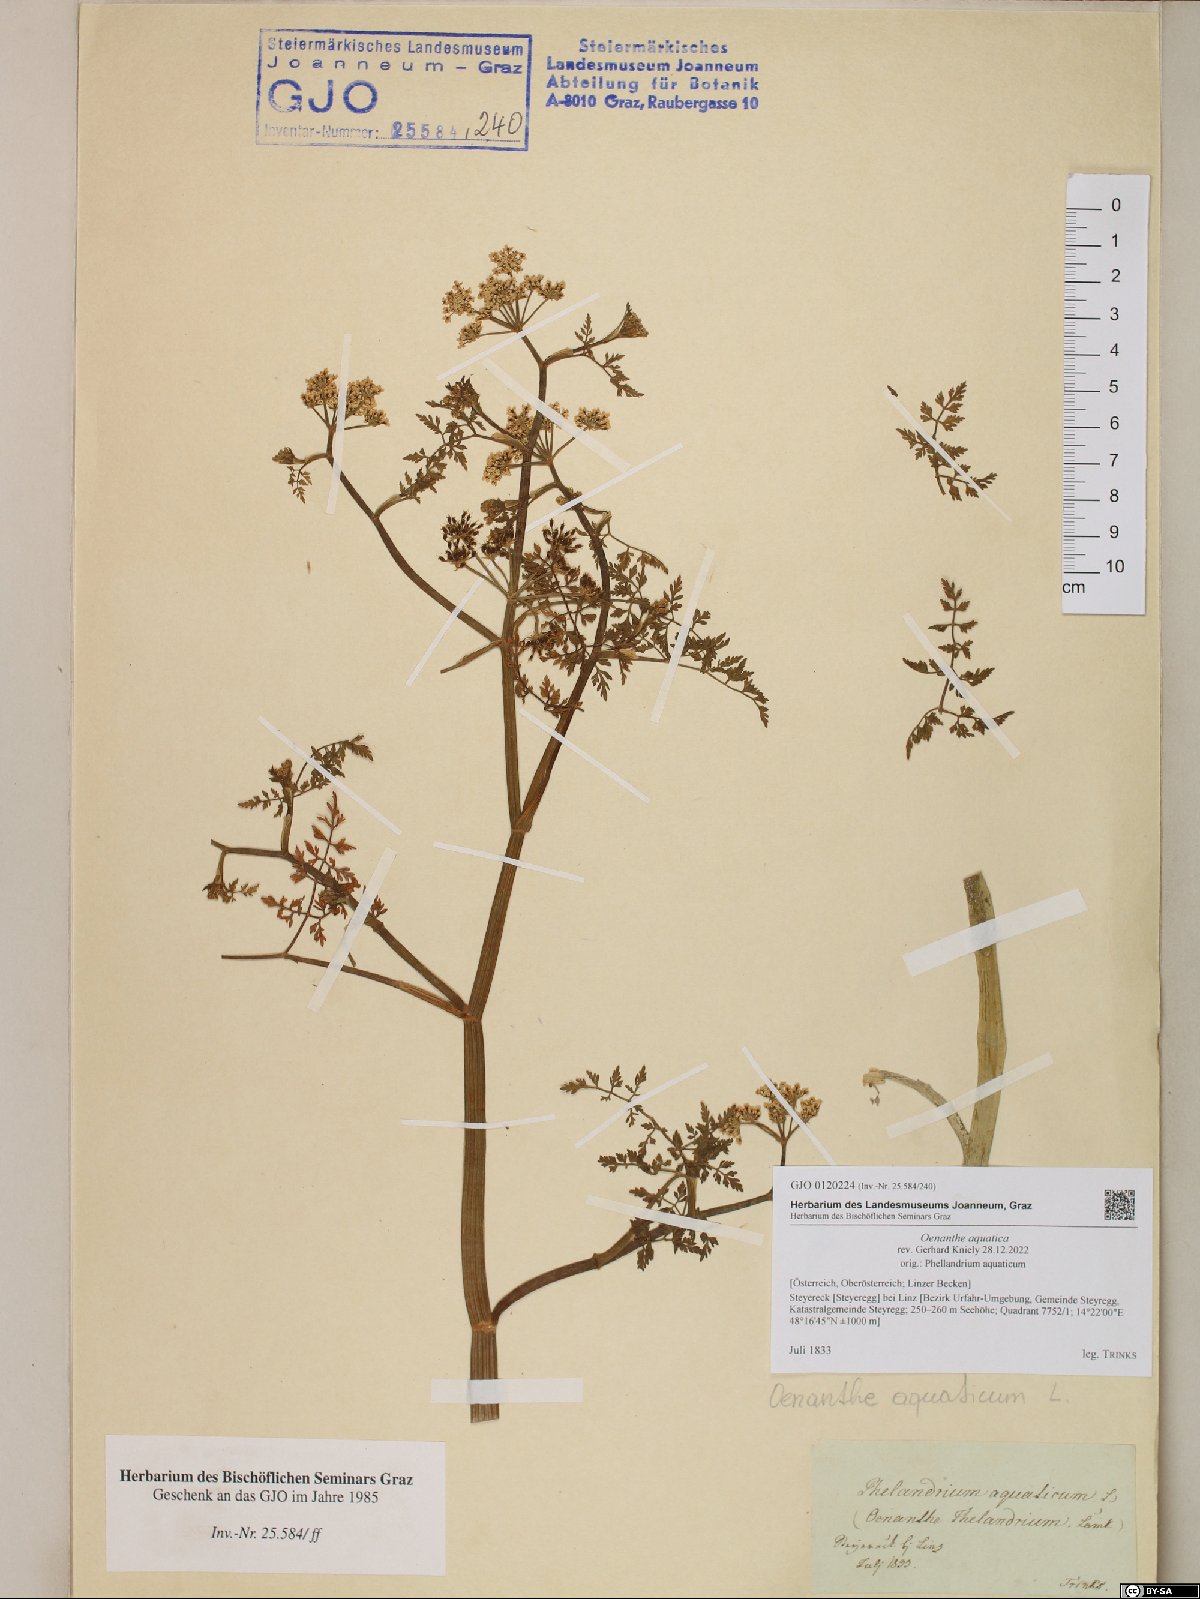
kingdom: Plantae
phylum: Tracheophyta
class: Magnoliopsida
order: Apiales
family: Apiaceae
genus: Oenanthe
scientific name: Oenanthe aquatica
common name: Fine-leaved water-dropwort
